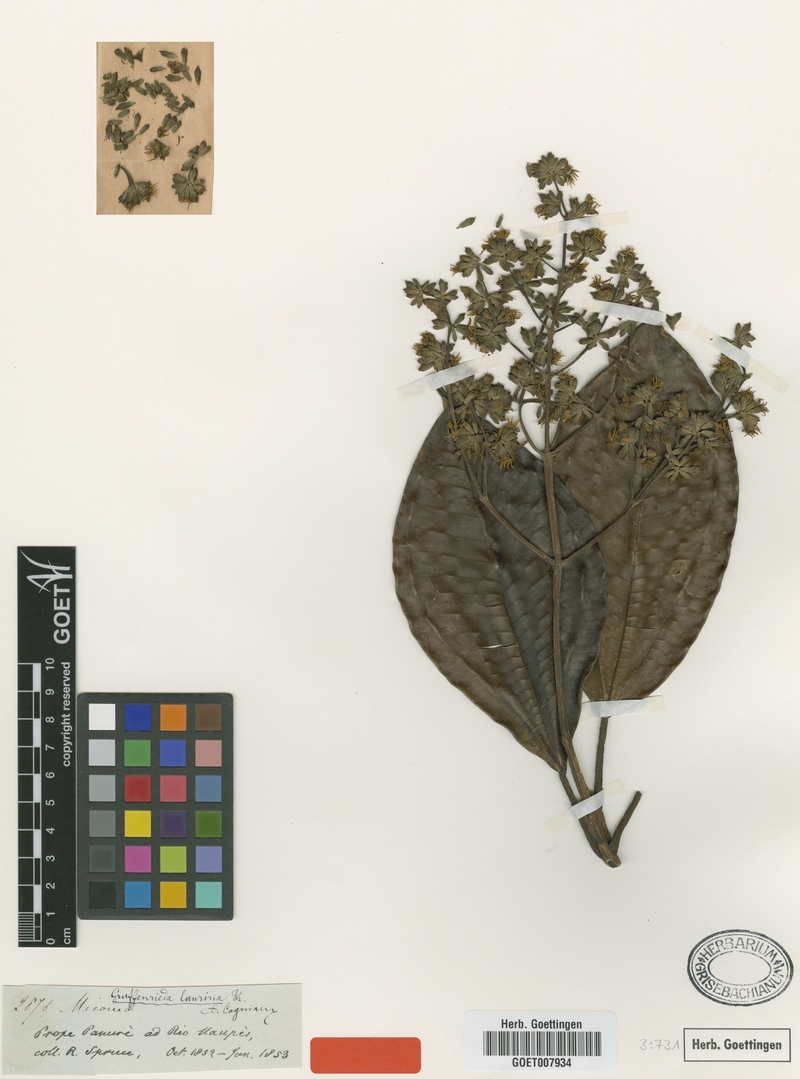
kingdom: Plantae
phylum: Tracheophyta
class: Magnoliopsida
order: Myrtales
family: Melastomataceae
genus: Graffenrieda
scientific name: Graffenrieda laurina
